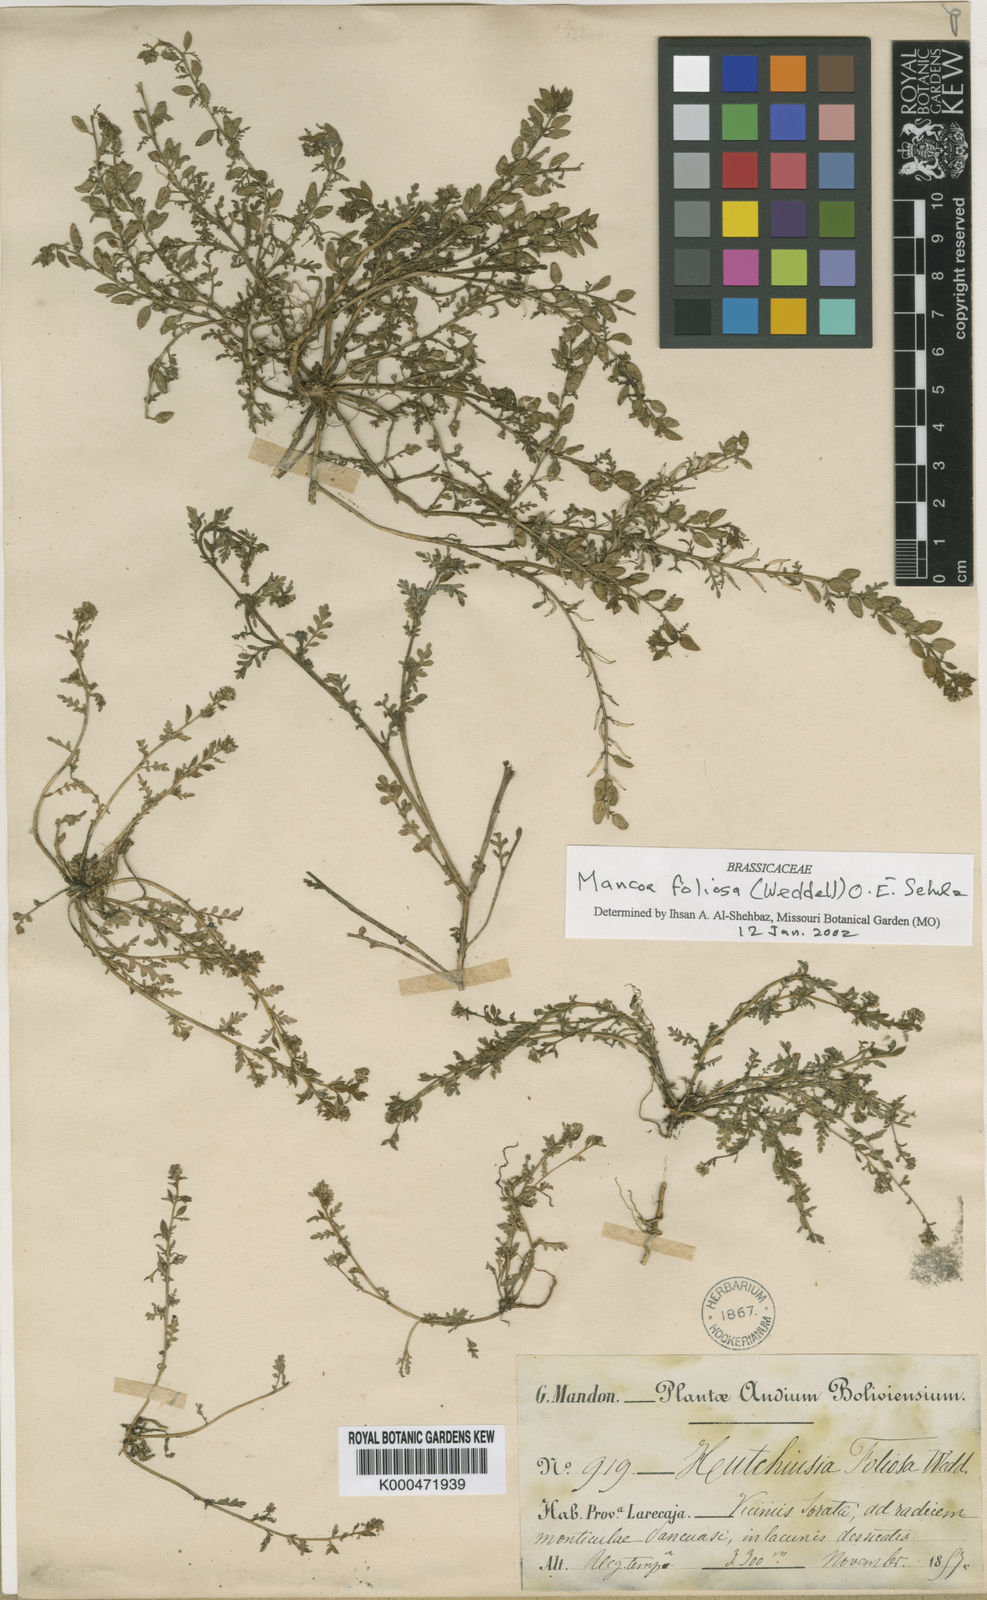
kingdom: Plantae
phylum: Tracheophyta
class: Magnoliopsida
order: Brassicales
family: Brassicaceae
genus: Mancoa
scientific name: Mancoa foliosa
